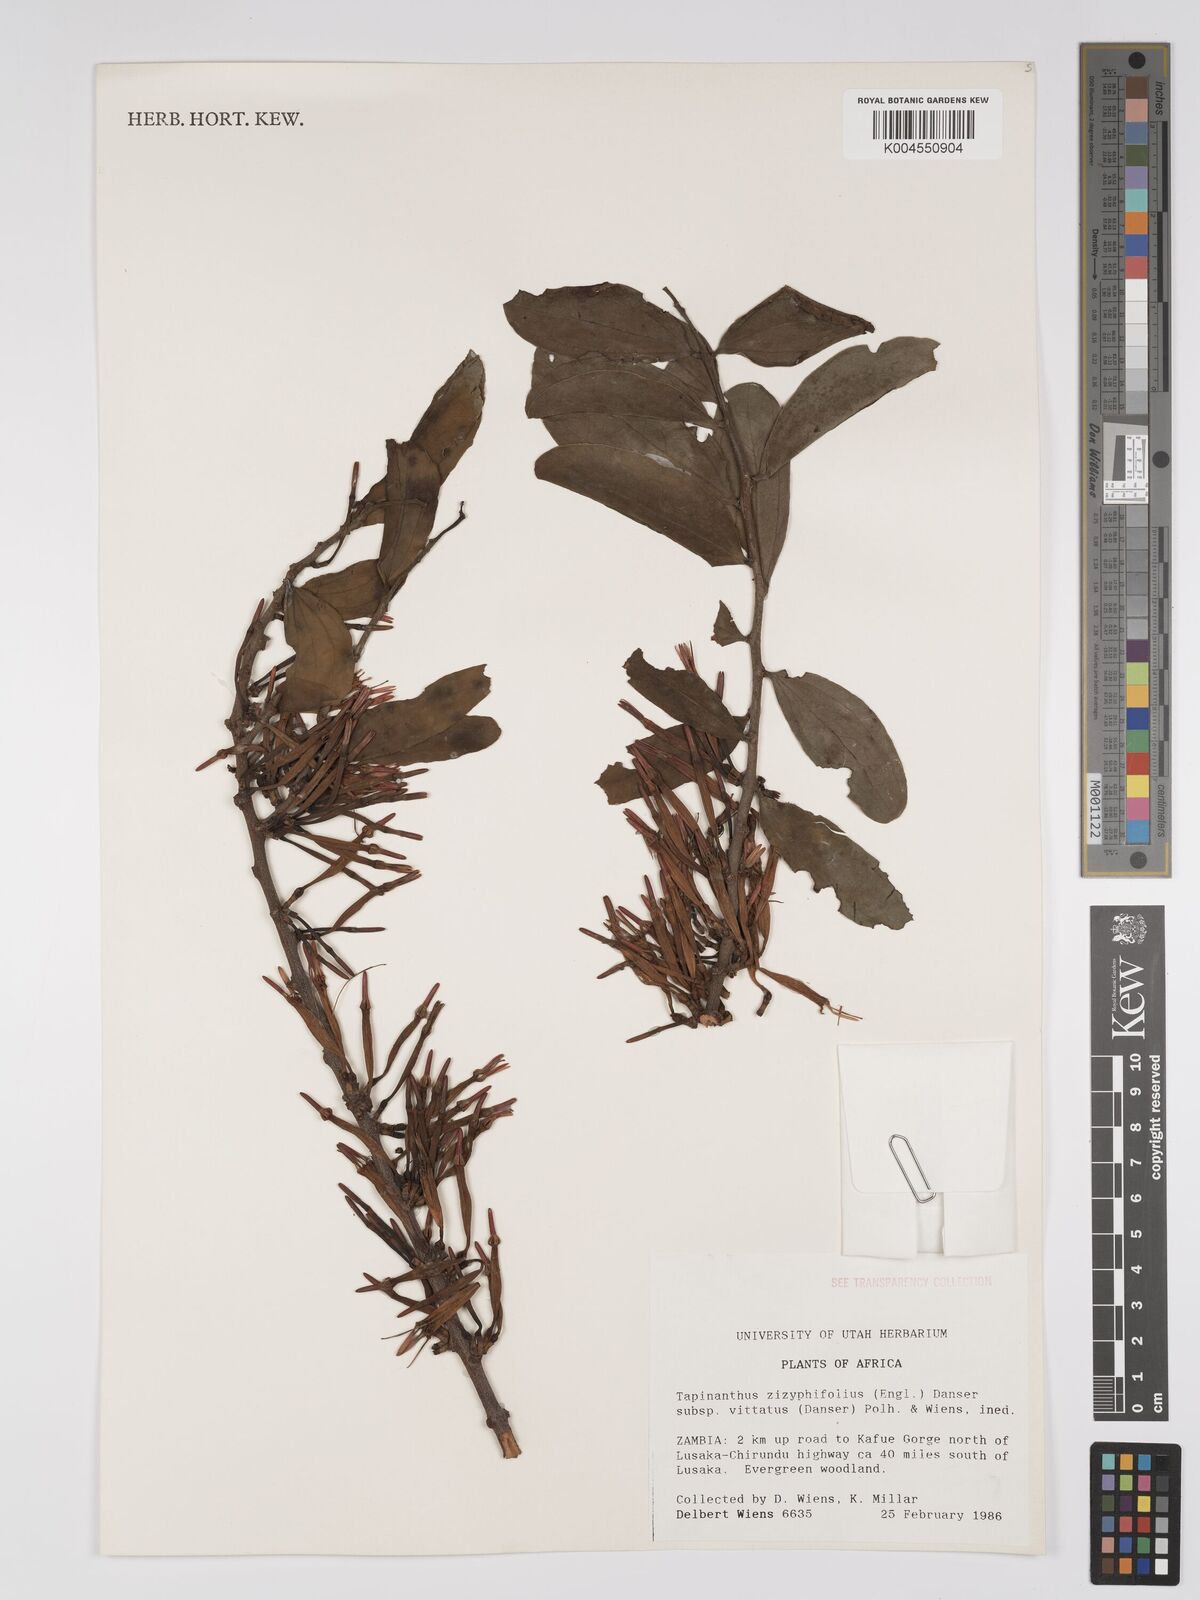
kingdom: Plantae
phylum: Tracheophyta
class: Magnoliopsida
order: Santalales
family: Loranthaceae
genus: Agelanthus
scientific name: Agelanthus zizyphifolius
